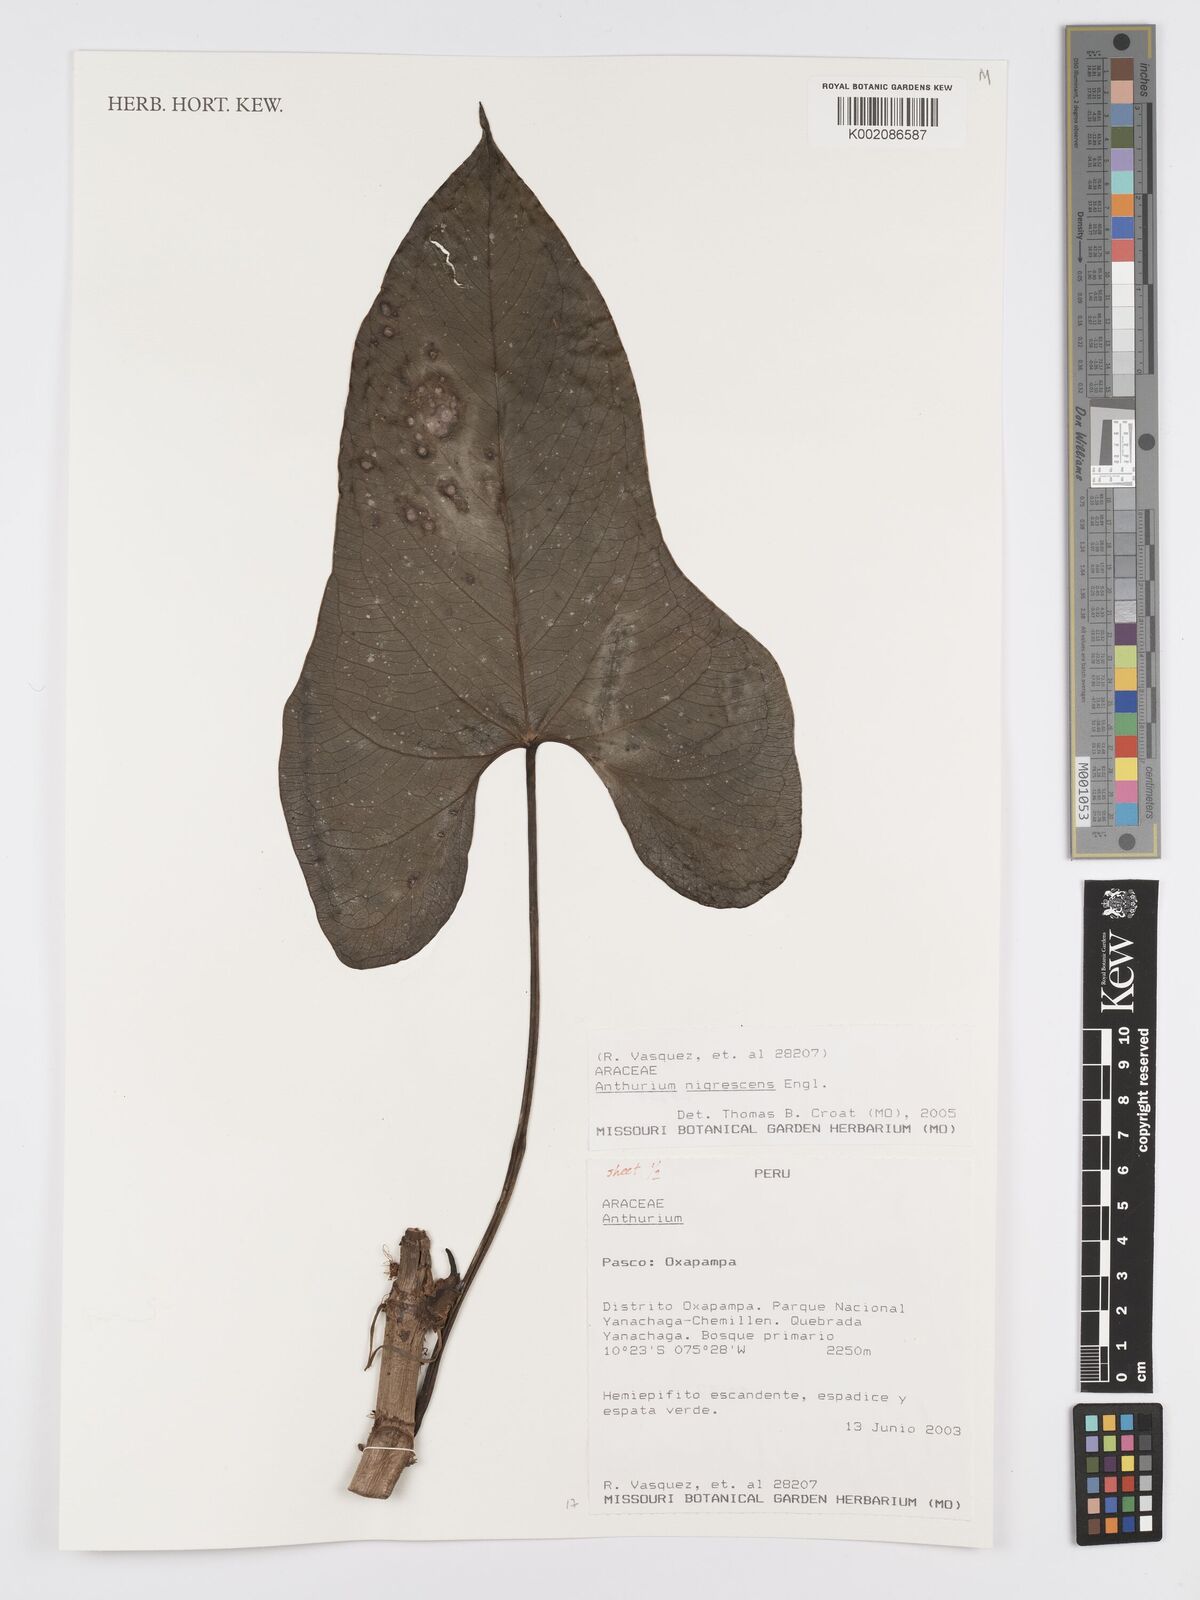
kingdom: Plantae
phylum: Tracheophyta
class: Liliopsida
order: Alismatales
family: Araceae
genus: Anthurium
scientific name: Anthurium nigrescens
